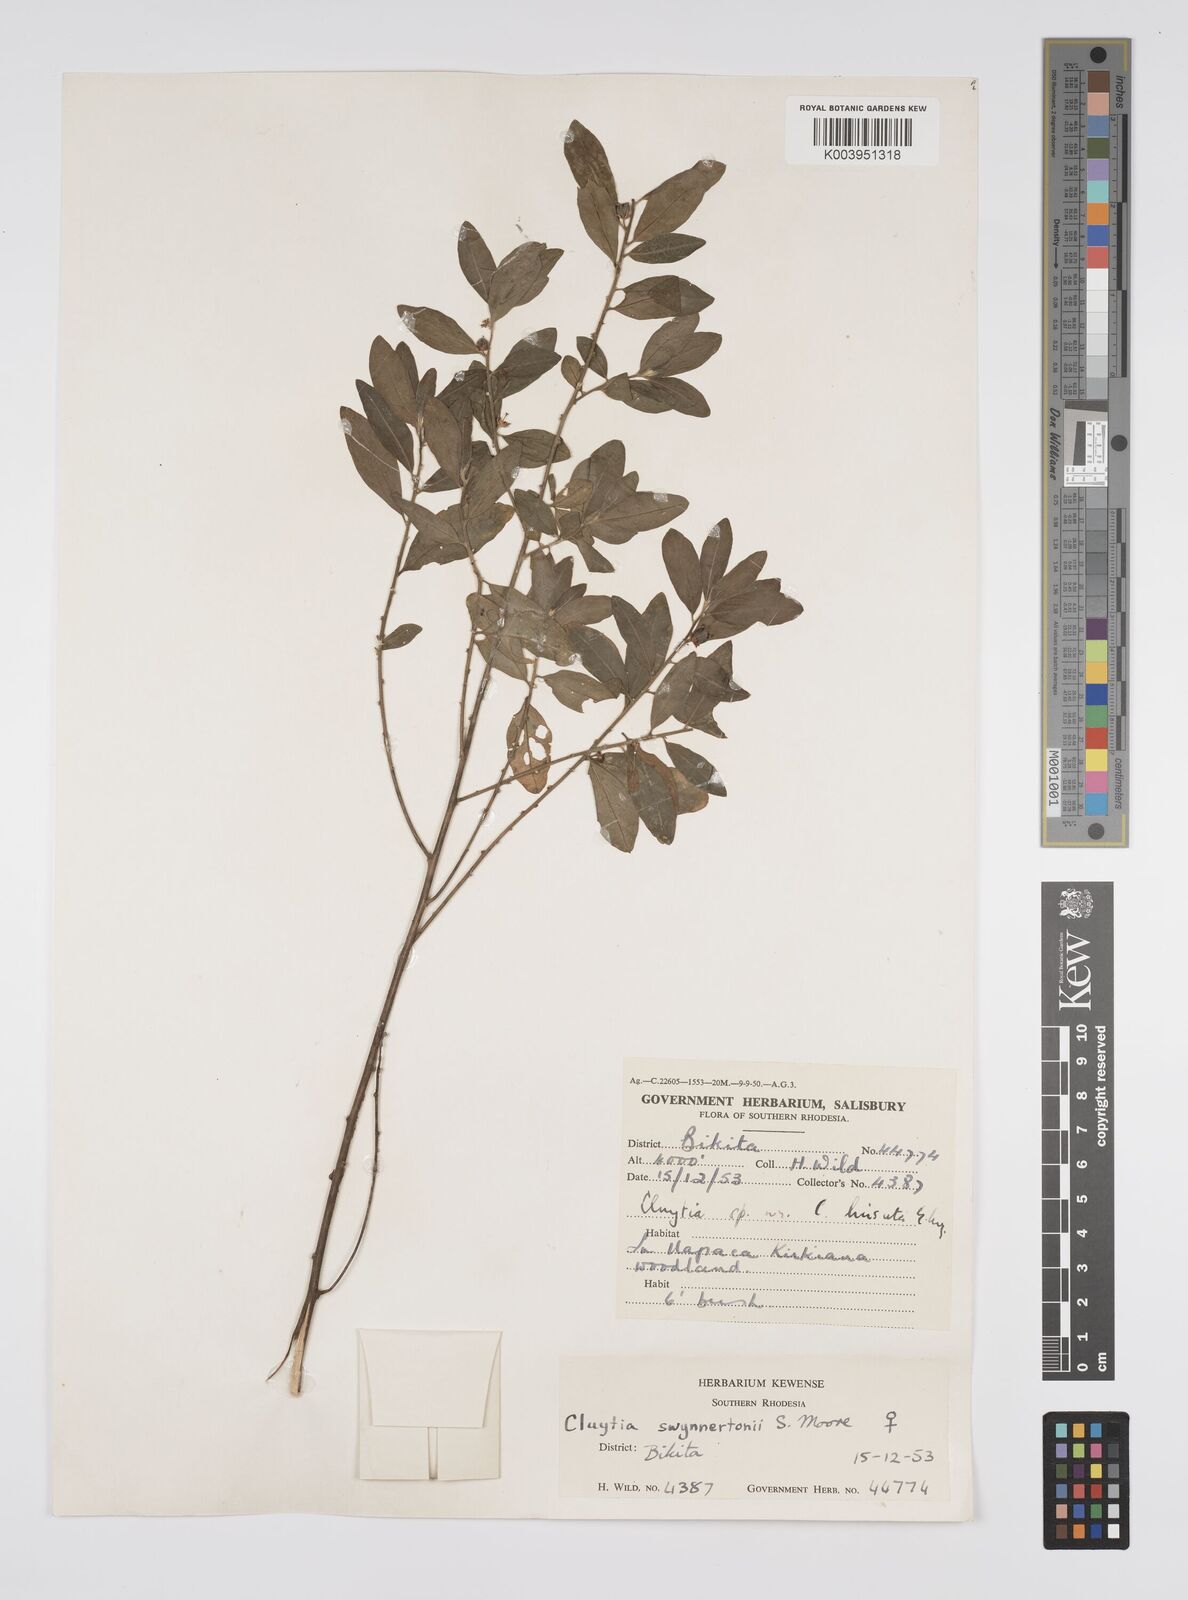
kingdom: Plantae
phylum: Tracheophyta
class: Magnoliopsida
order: Malpighiales
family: Peraceae
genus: Clutia
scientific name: Clutia swynnertonii
